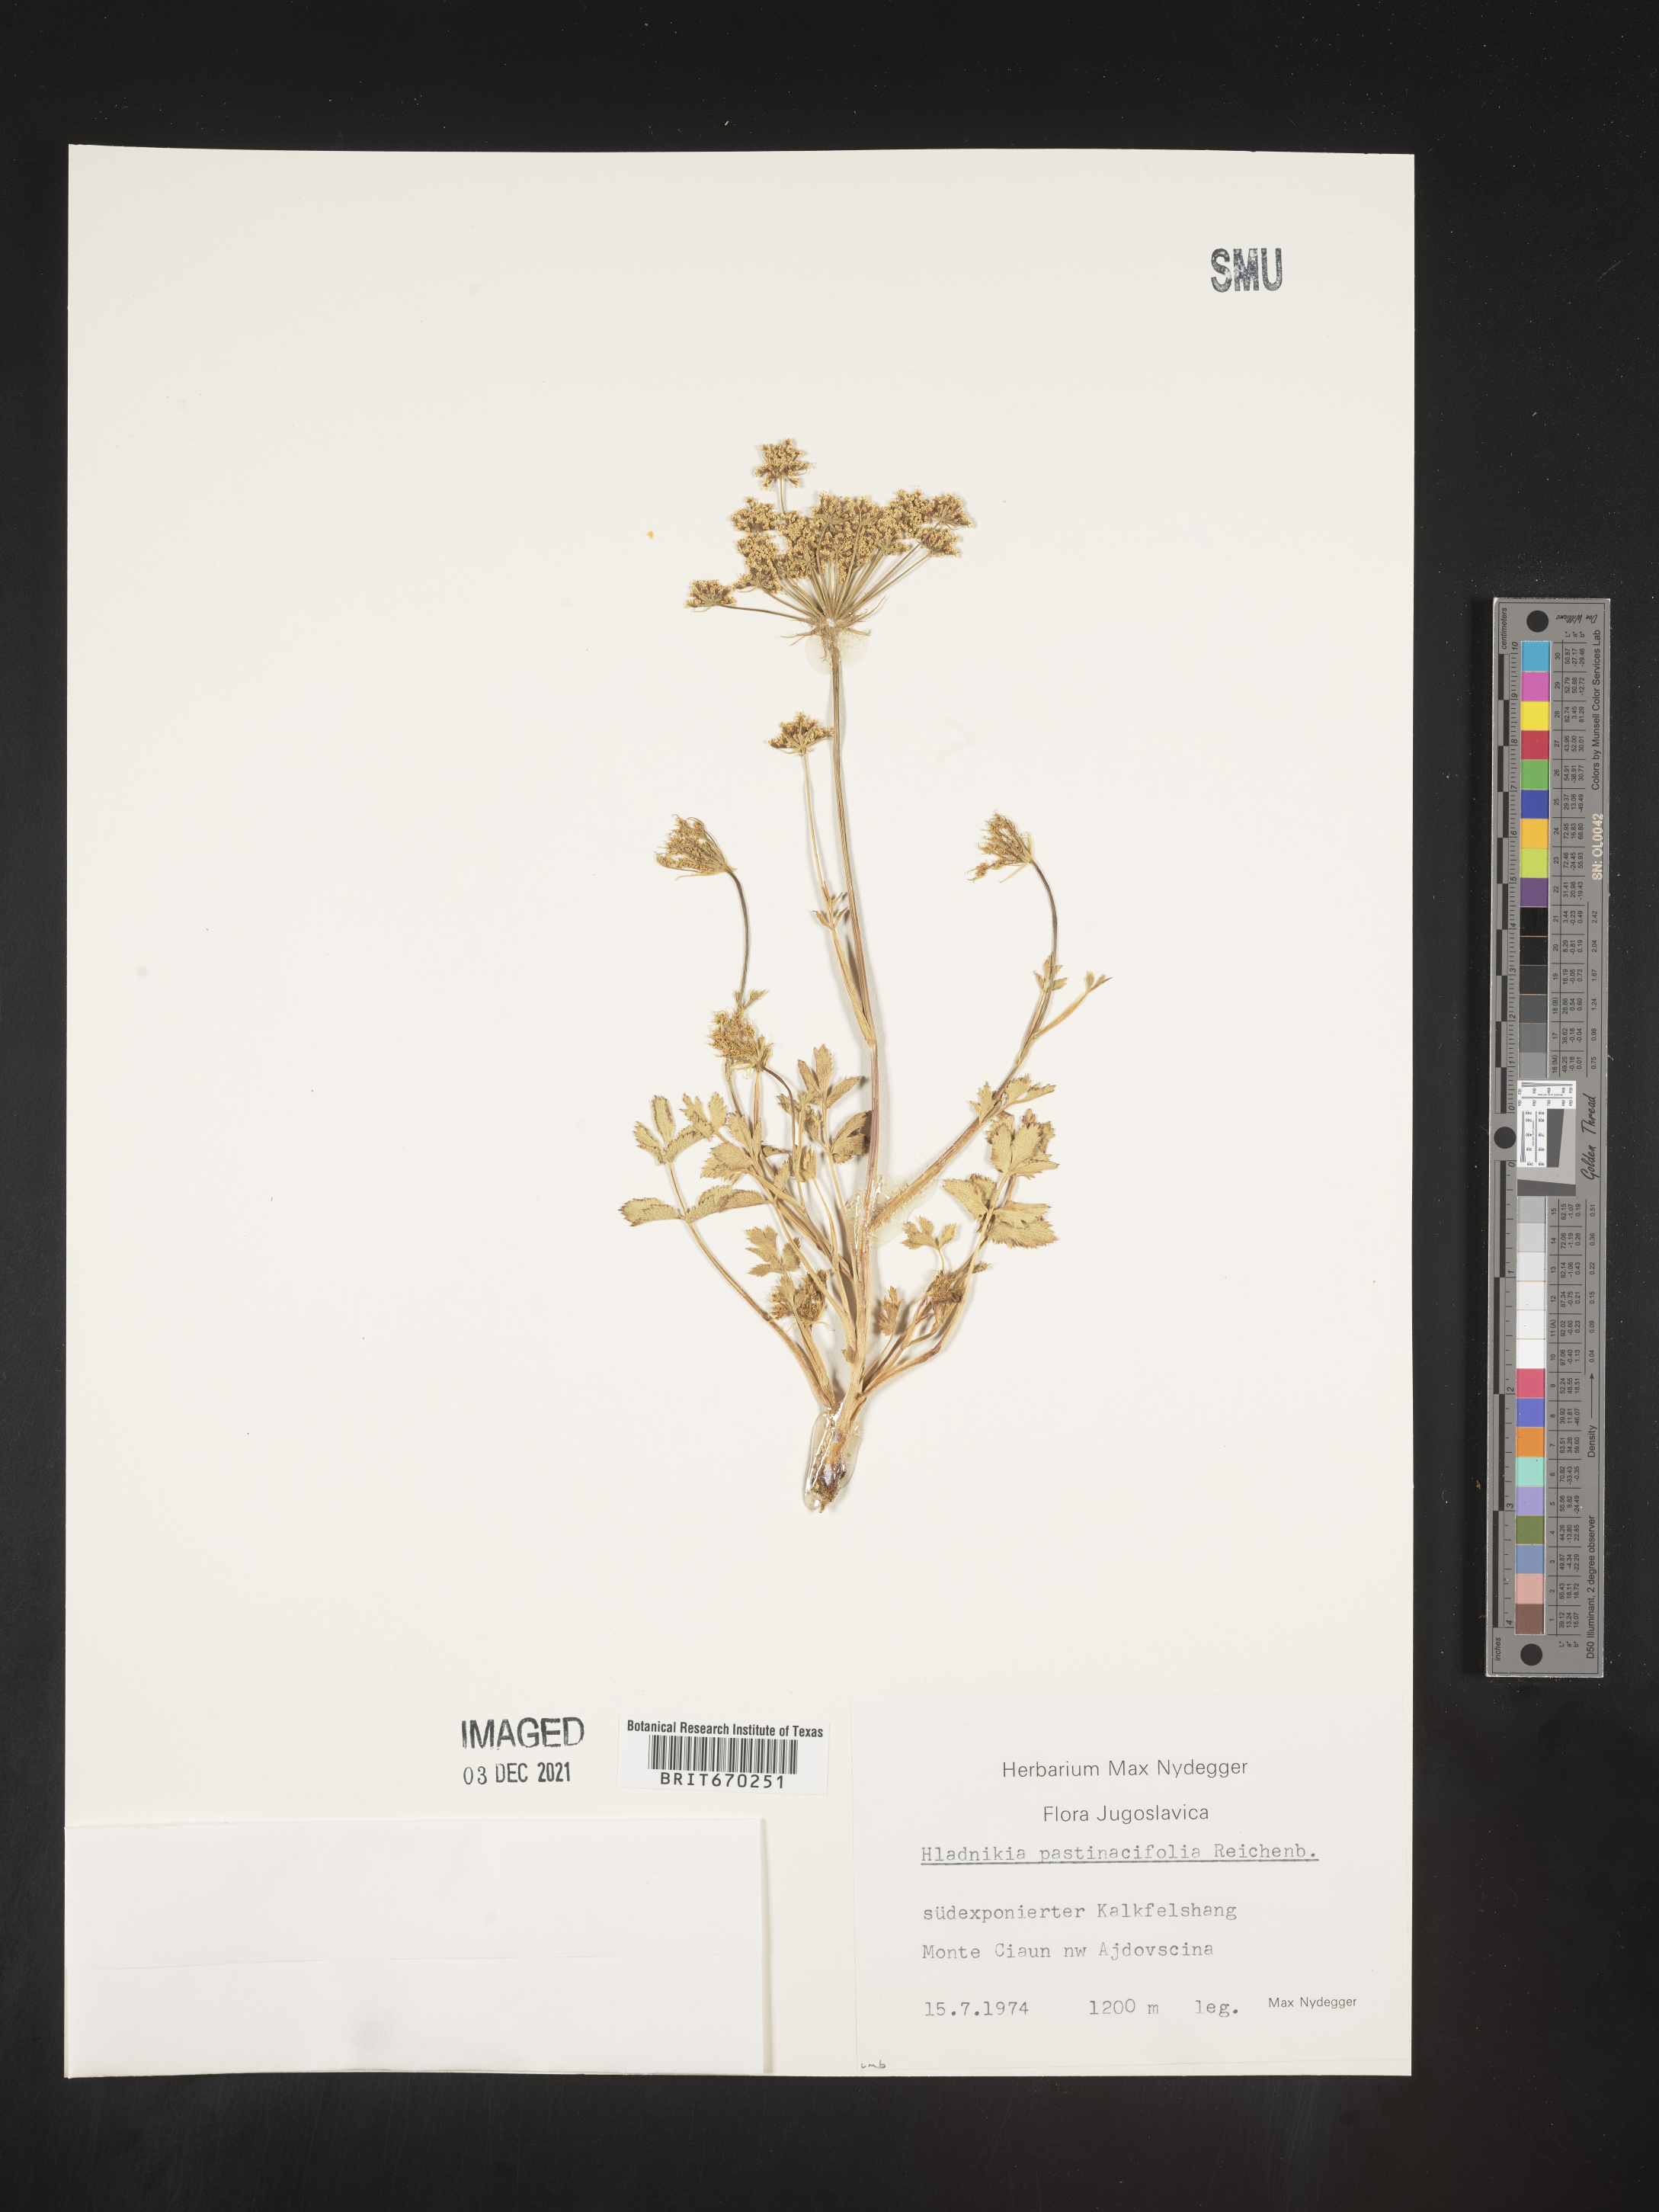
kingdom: Plantae
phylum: Tracheophyta
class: Magnoliopsida
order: Apiales
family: Apiaceae
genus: Hladnikia
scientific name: Hladnikia pastinacifolia
